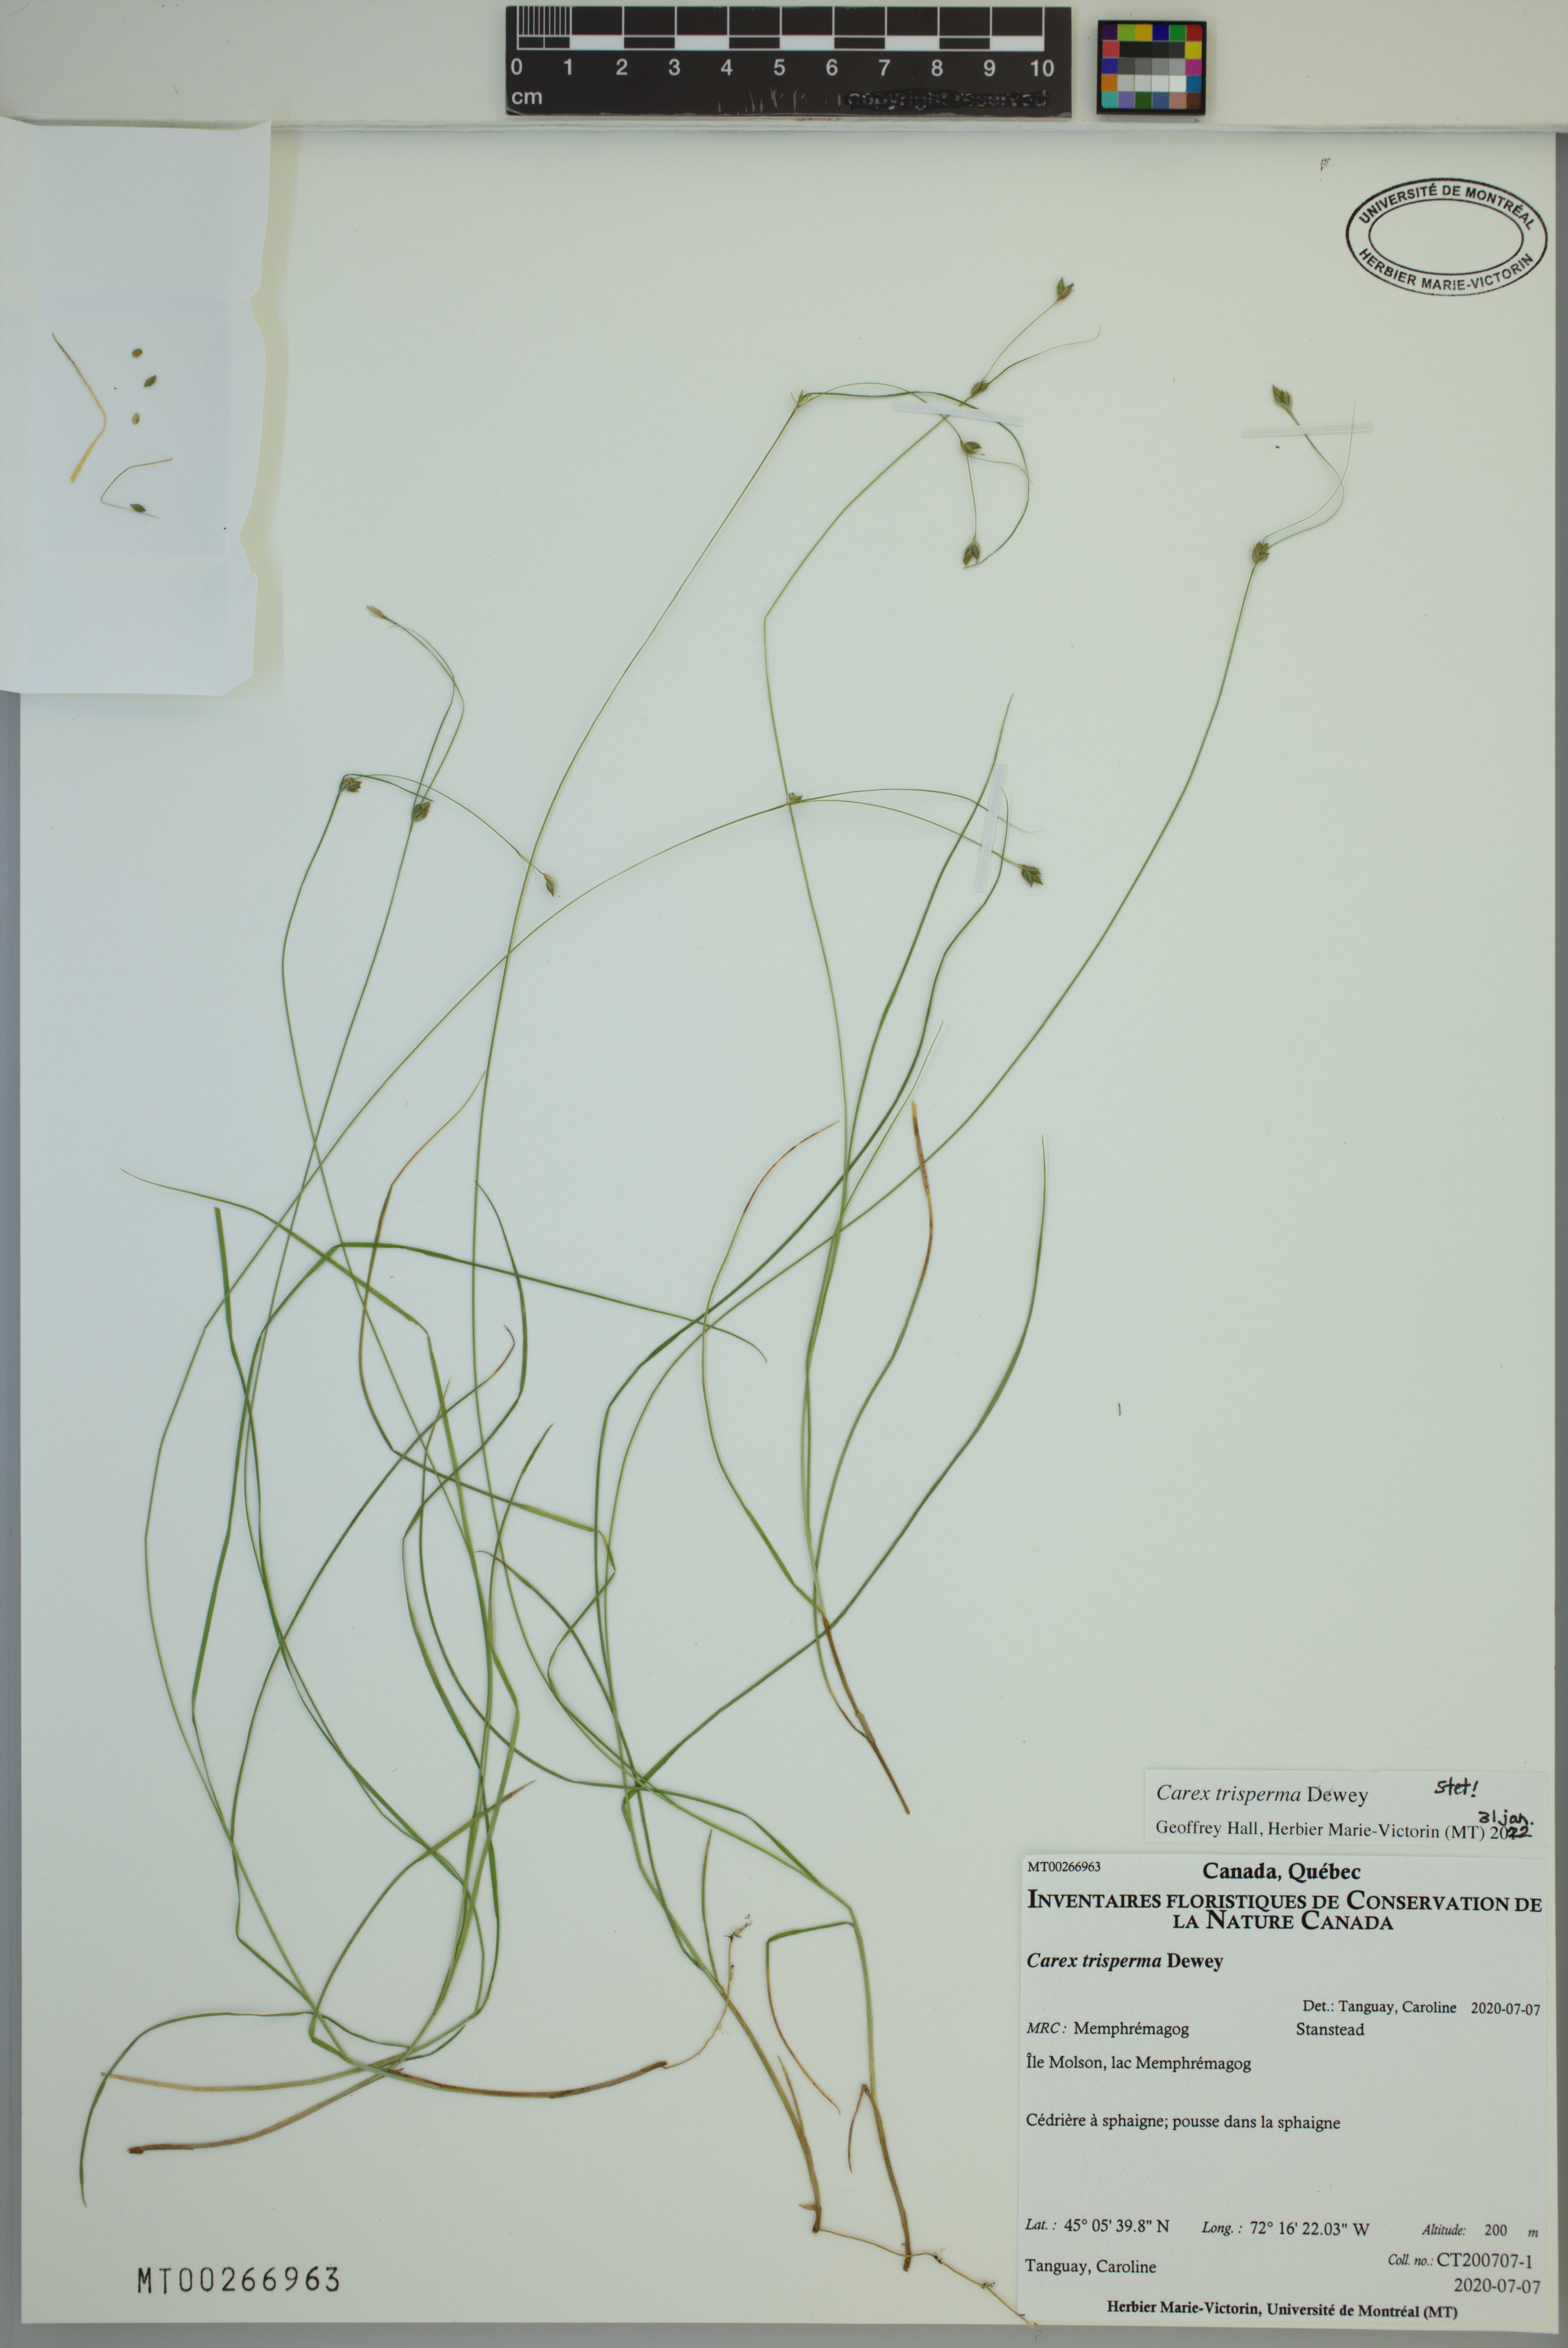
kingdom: Plantae
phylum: Tracheophyta
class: Liliopsida
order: Poales
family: Cyperaceae
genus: Carex
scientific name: Carex trisperma
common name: Three-seeded sedge
